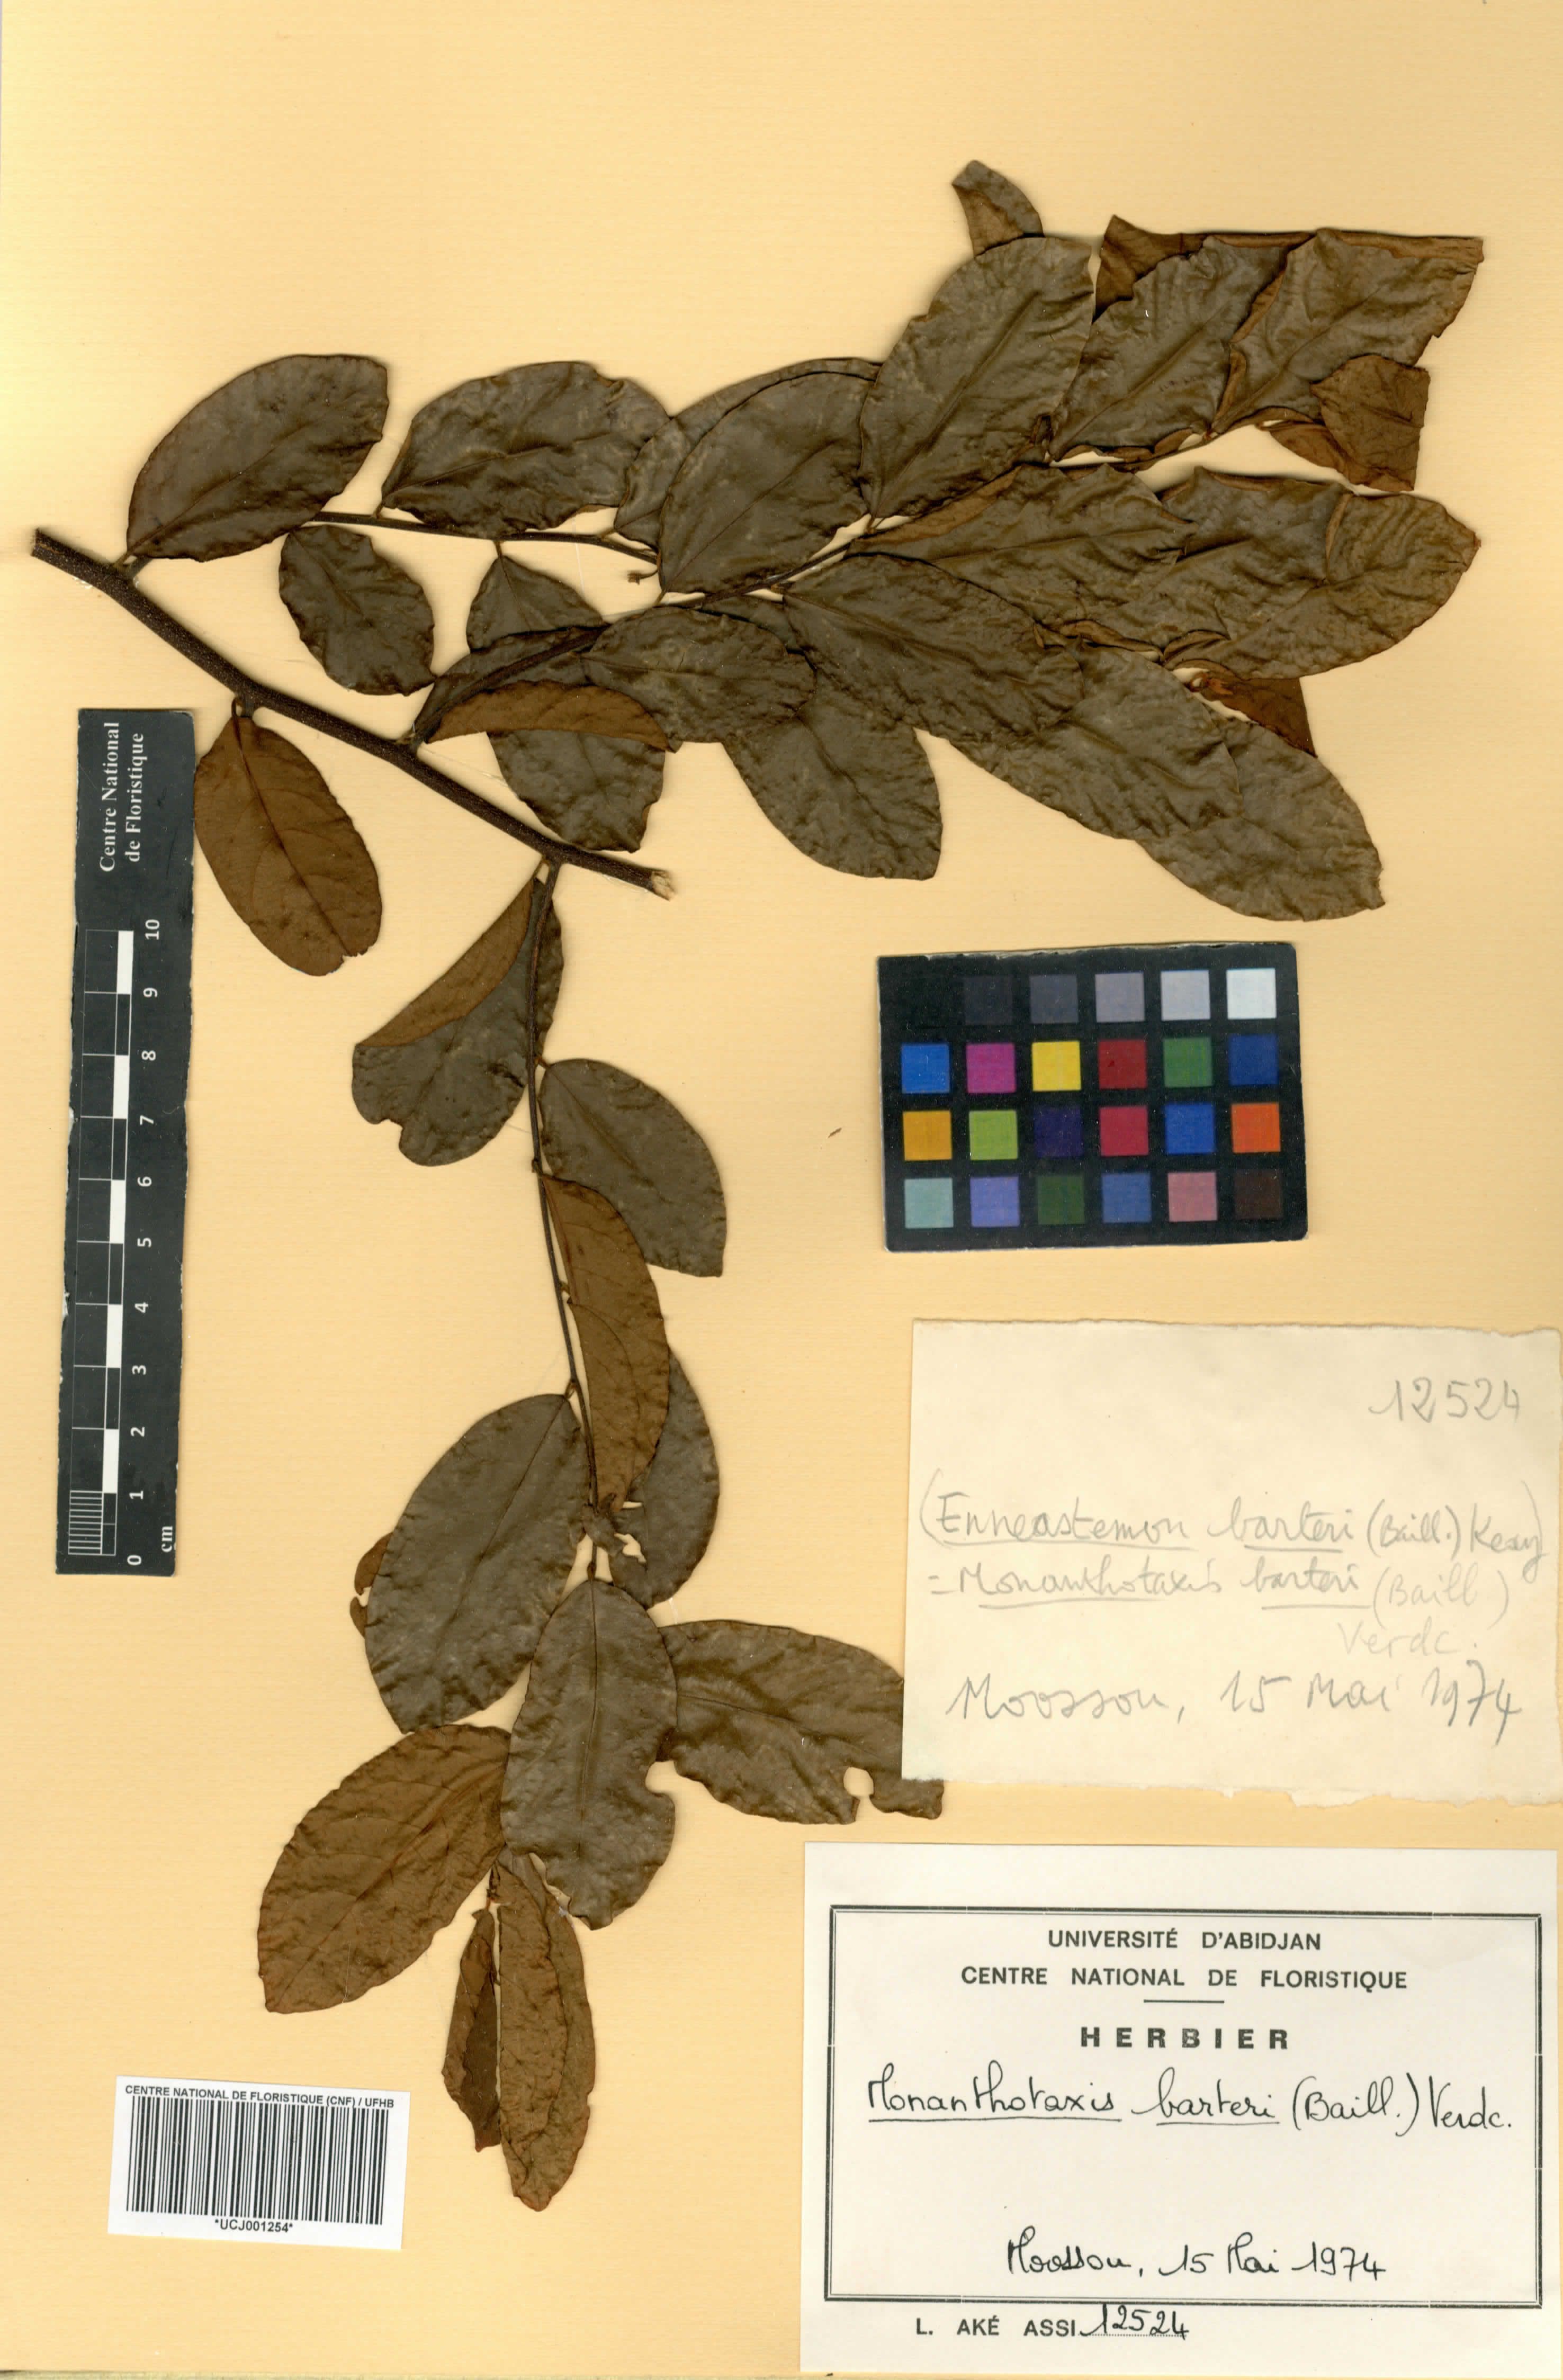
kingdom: Plantae
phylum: Tracheophyta
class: Magnoliopsida
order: Magnoliales
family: Annonaceae
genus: Monanthotaxis
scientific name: Monanthotaxis barteri
